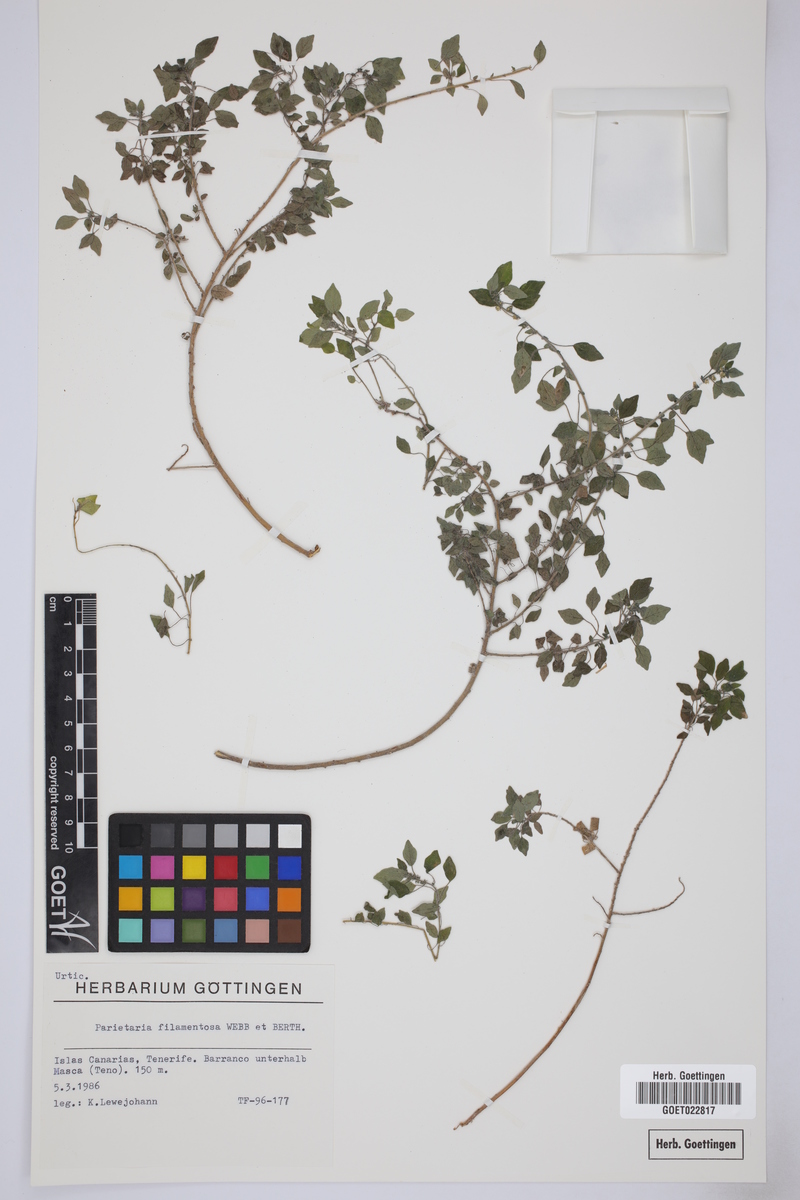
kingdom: Plantae
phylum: Tracheophyta
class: Magnoliopsida
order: Rosales
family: Urticaceae
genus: Parietaria
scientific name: Parietaria filamentosa
